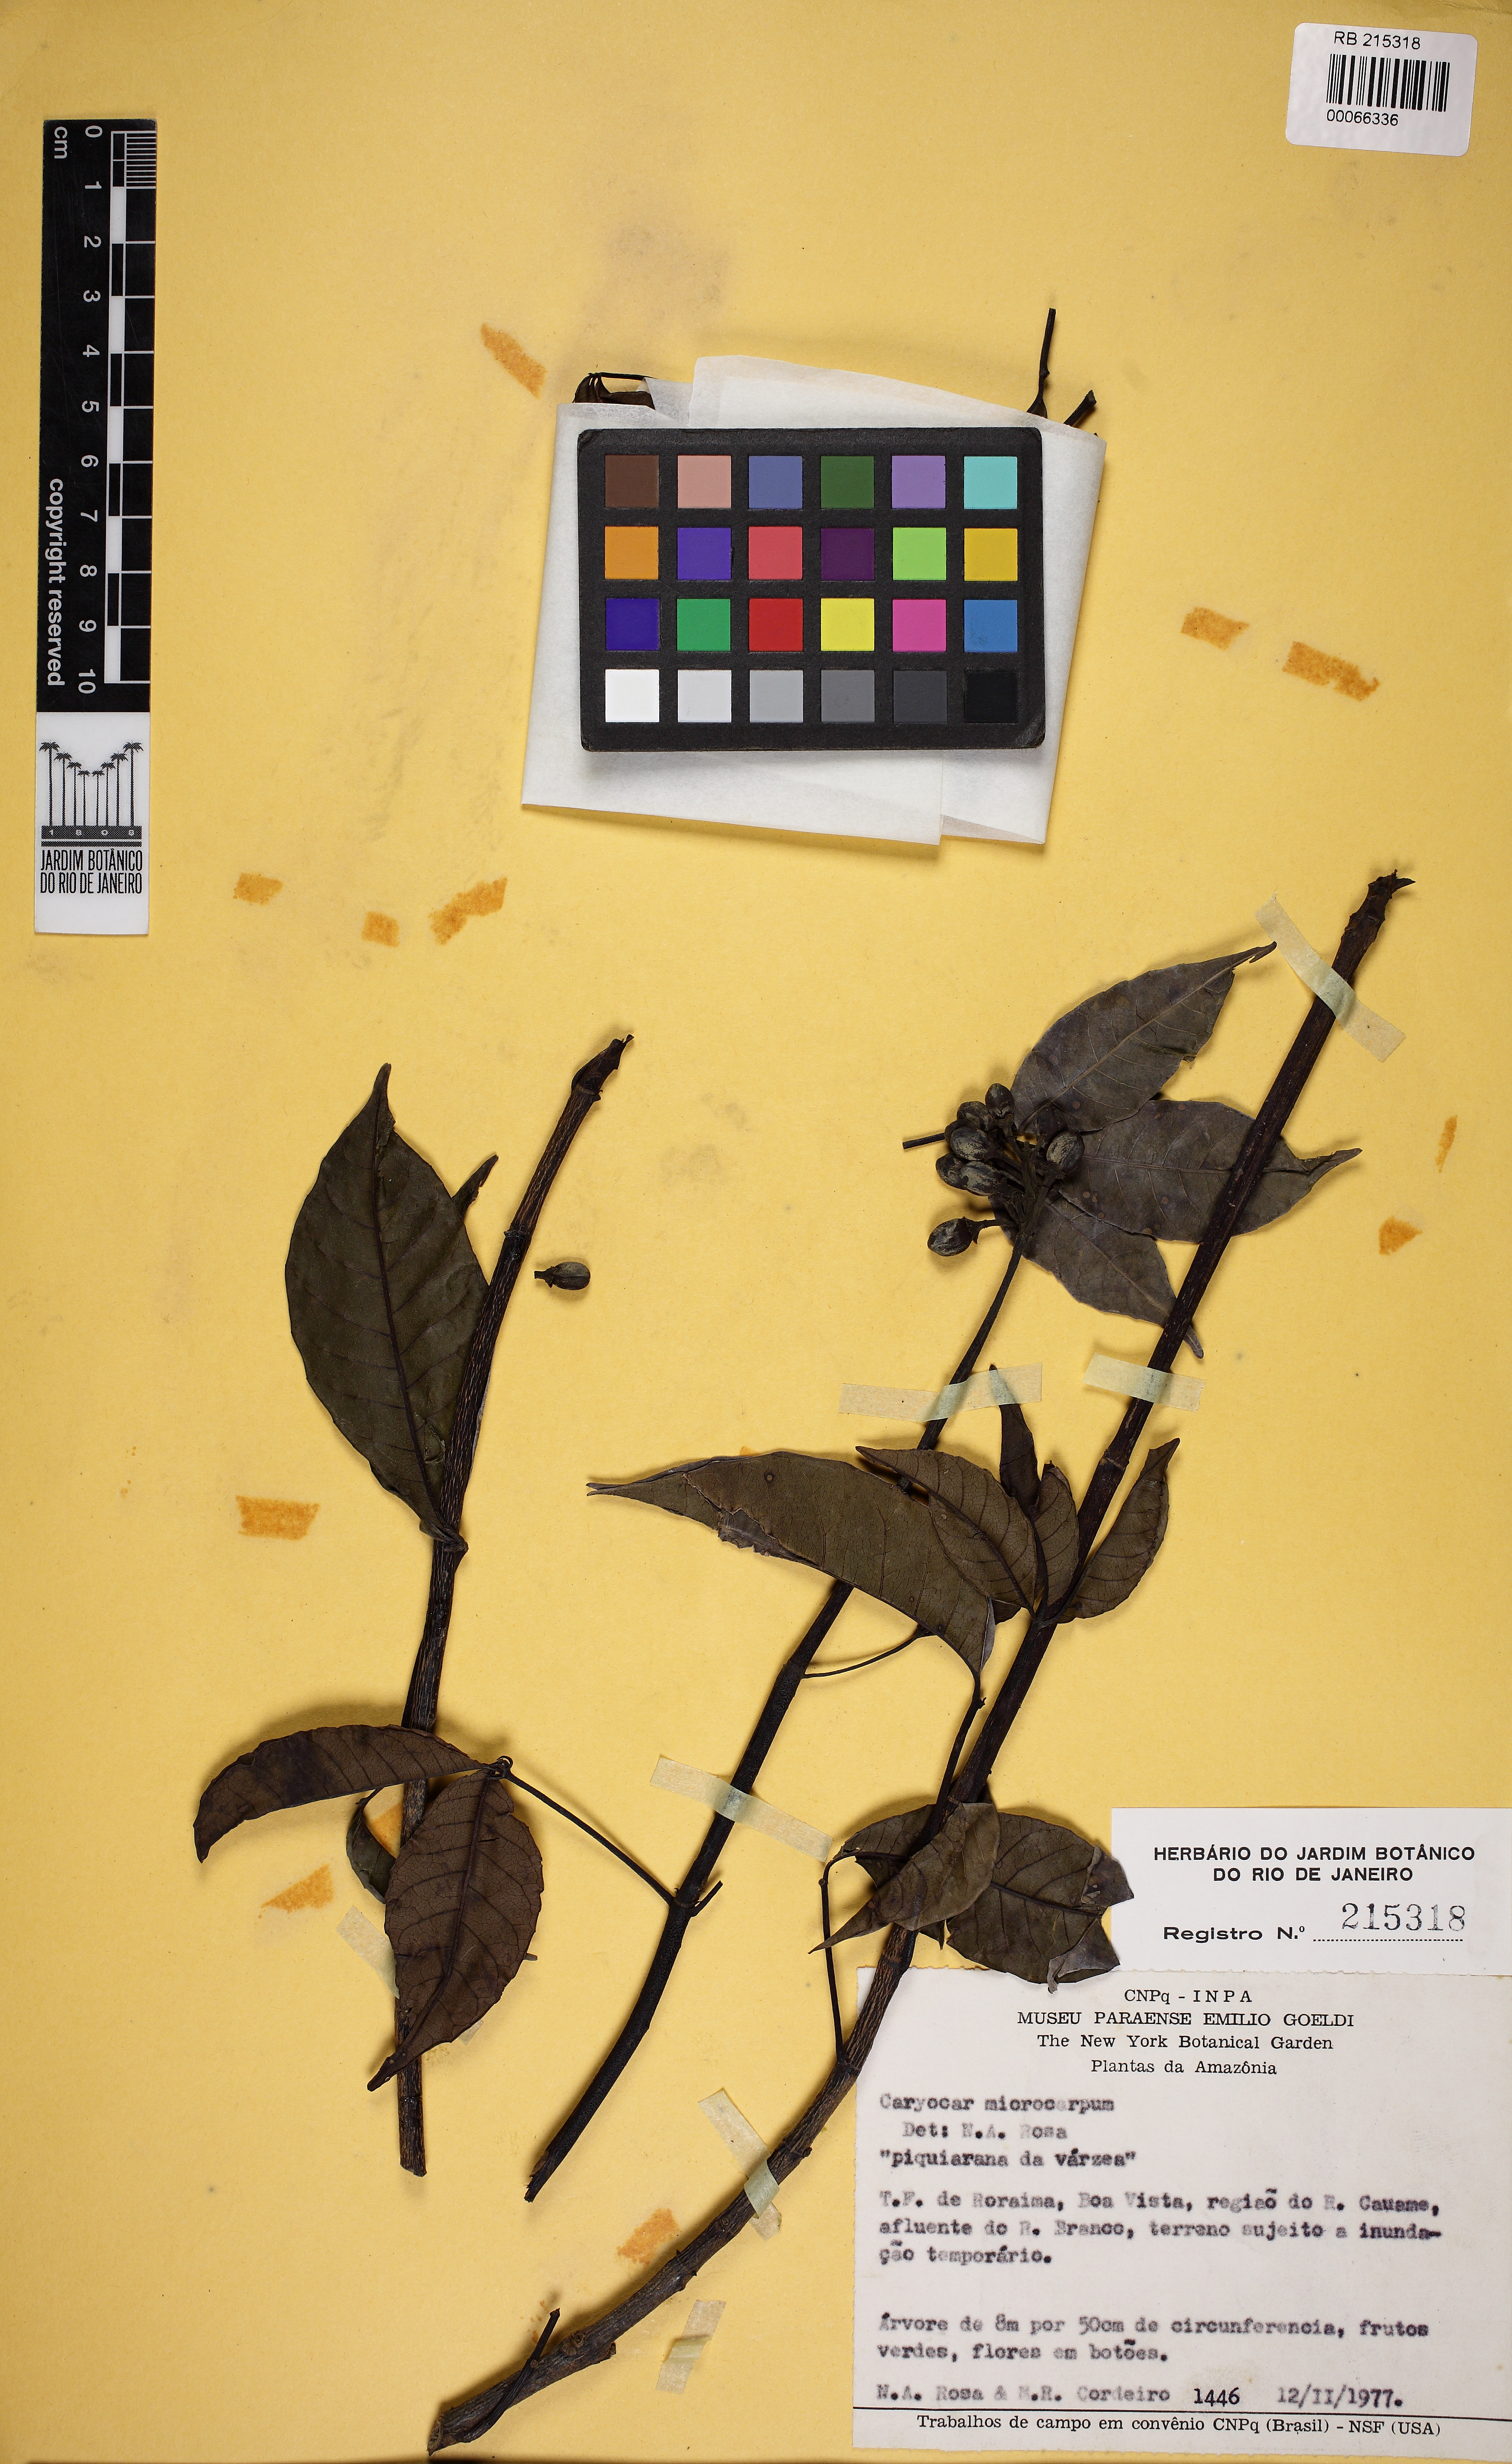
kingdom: Plantae
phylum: Tracheophyta
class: Magnoliopsida
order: Malpighiales
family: Caryocaraceae
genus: Caryocar
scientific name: Caryocar microcarpum
